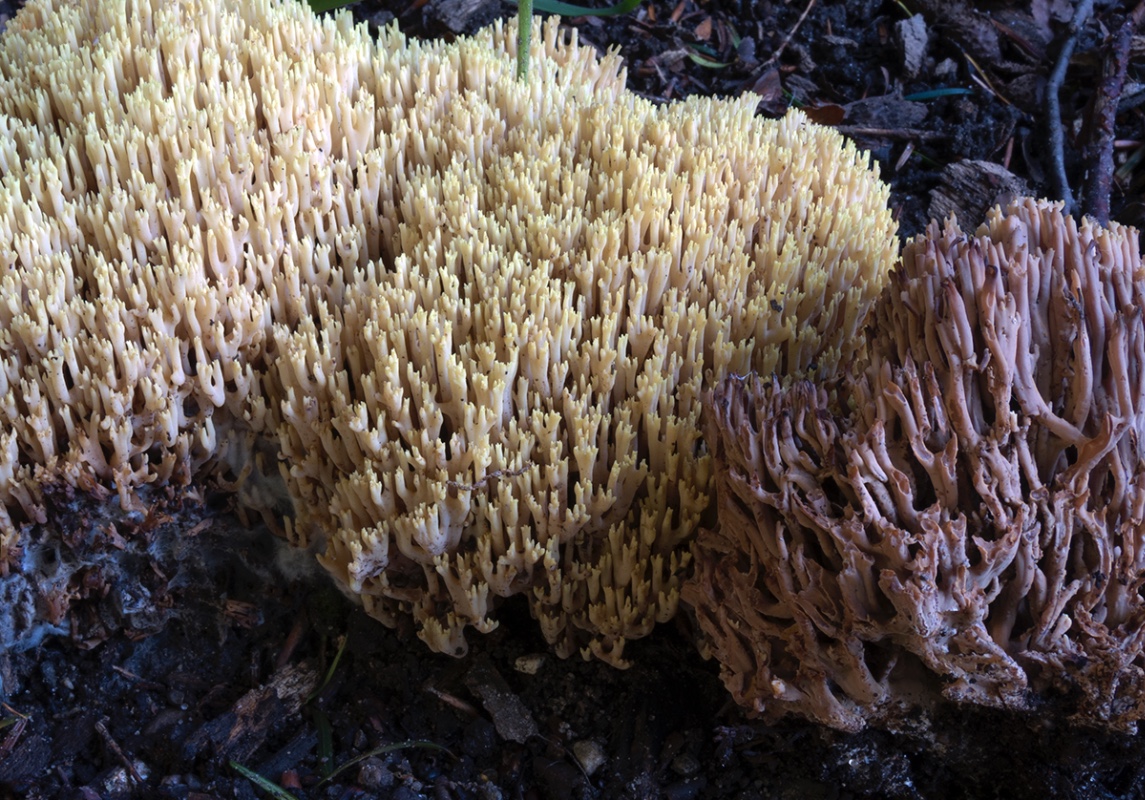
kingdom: Fungi
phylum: Basidiomycota
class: Agaricomycetes
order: Gomphales
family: Gomphaceae
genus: Ramaria
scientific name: Ramaria stricta
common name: rank koralsvamp
